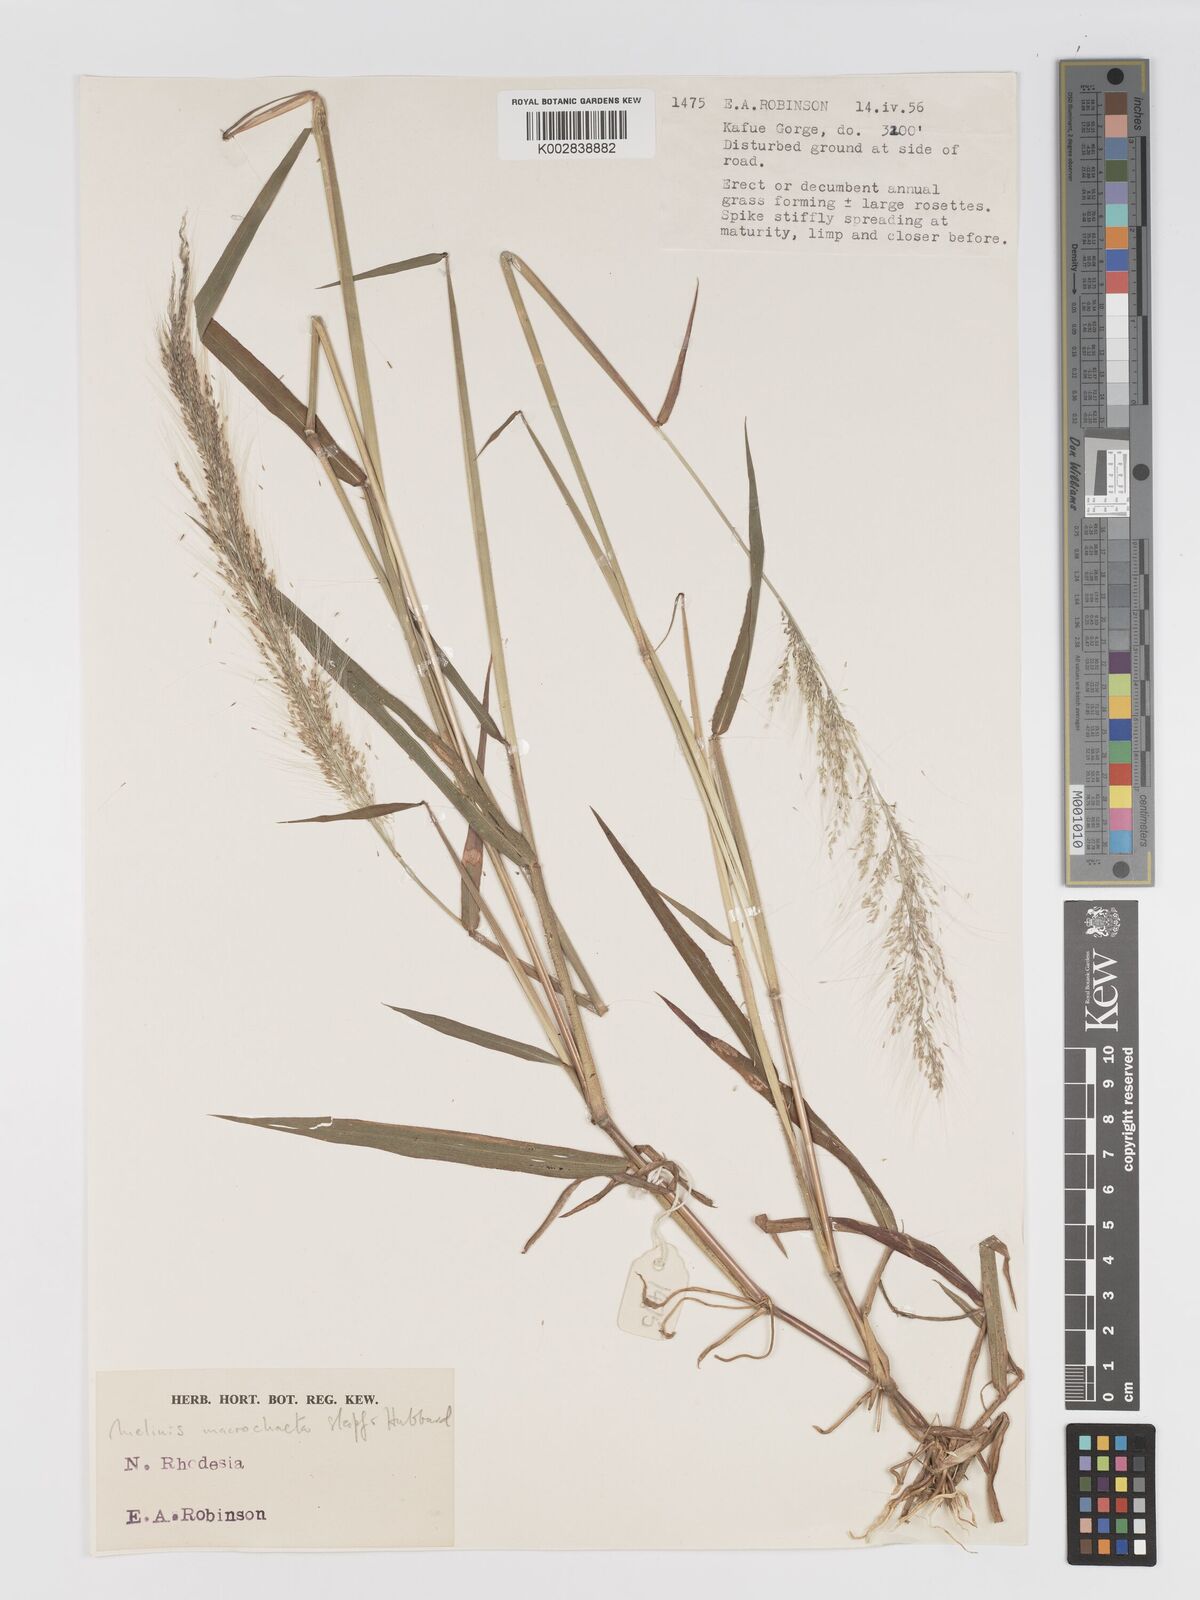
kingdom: Plantae
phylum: Tracheophyta
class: Liliopsida
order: Poales
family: Poaceae
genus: Melinis
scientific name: Melinis macrochaeta
